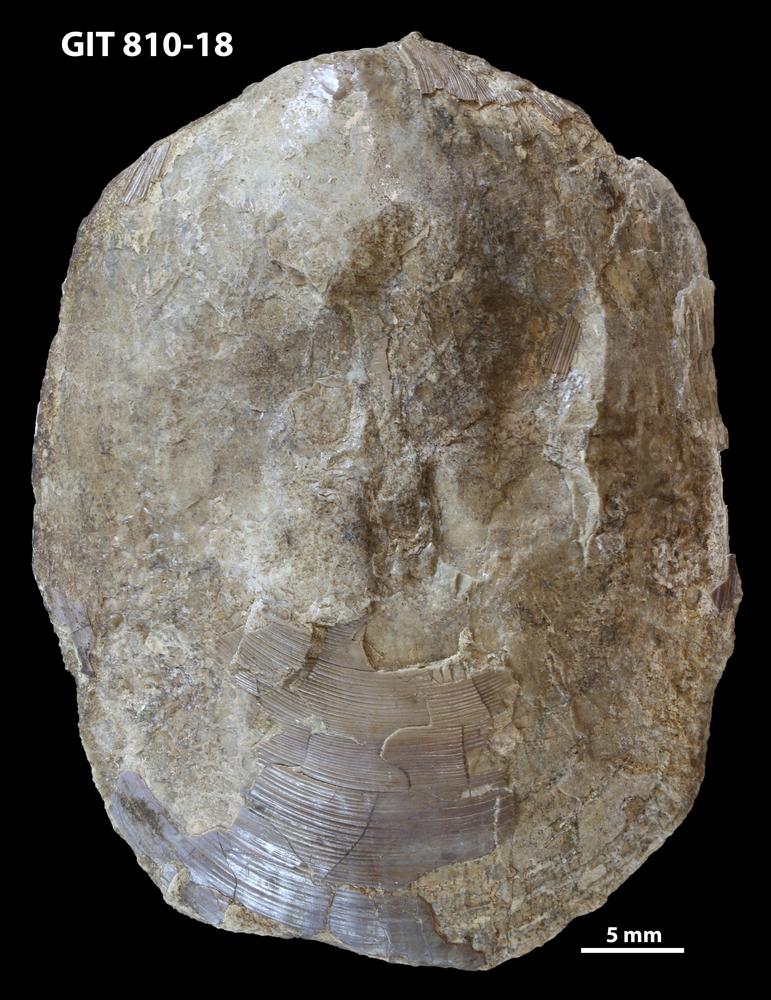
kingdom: Animalia
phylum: Brachiopoda
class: Lingulata
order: Lingulida
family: Pseudolingulidae
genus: Pseudolingula
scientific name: Pseudolingula Crania quadrata
